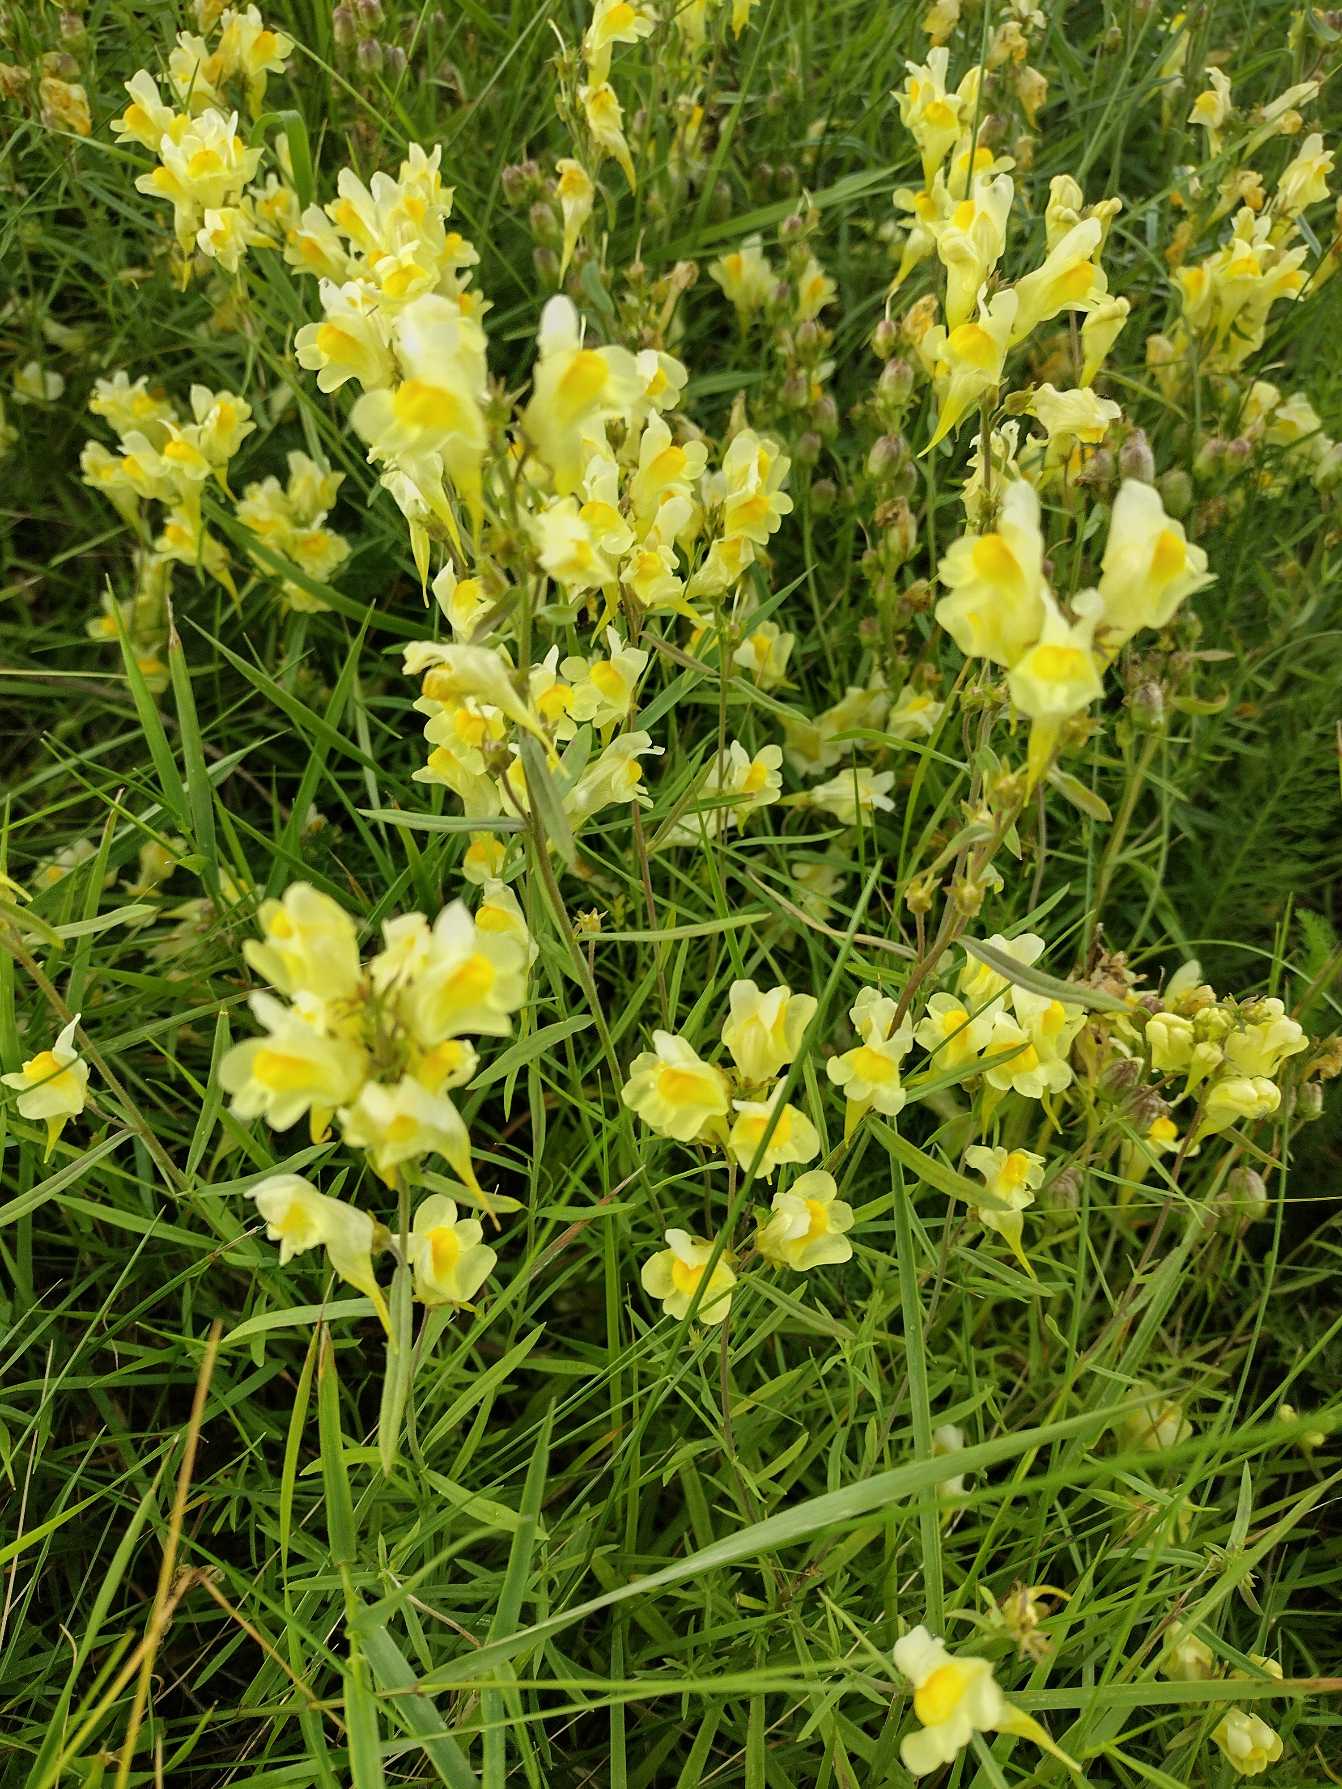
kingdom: Plantae
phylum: Tracheophyta
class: Magnoliopsida
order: Lamiales
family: Plantaginaceae
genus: Linaria
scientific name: Linaria vulgaris
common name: Almindelig torskemund
